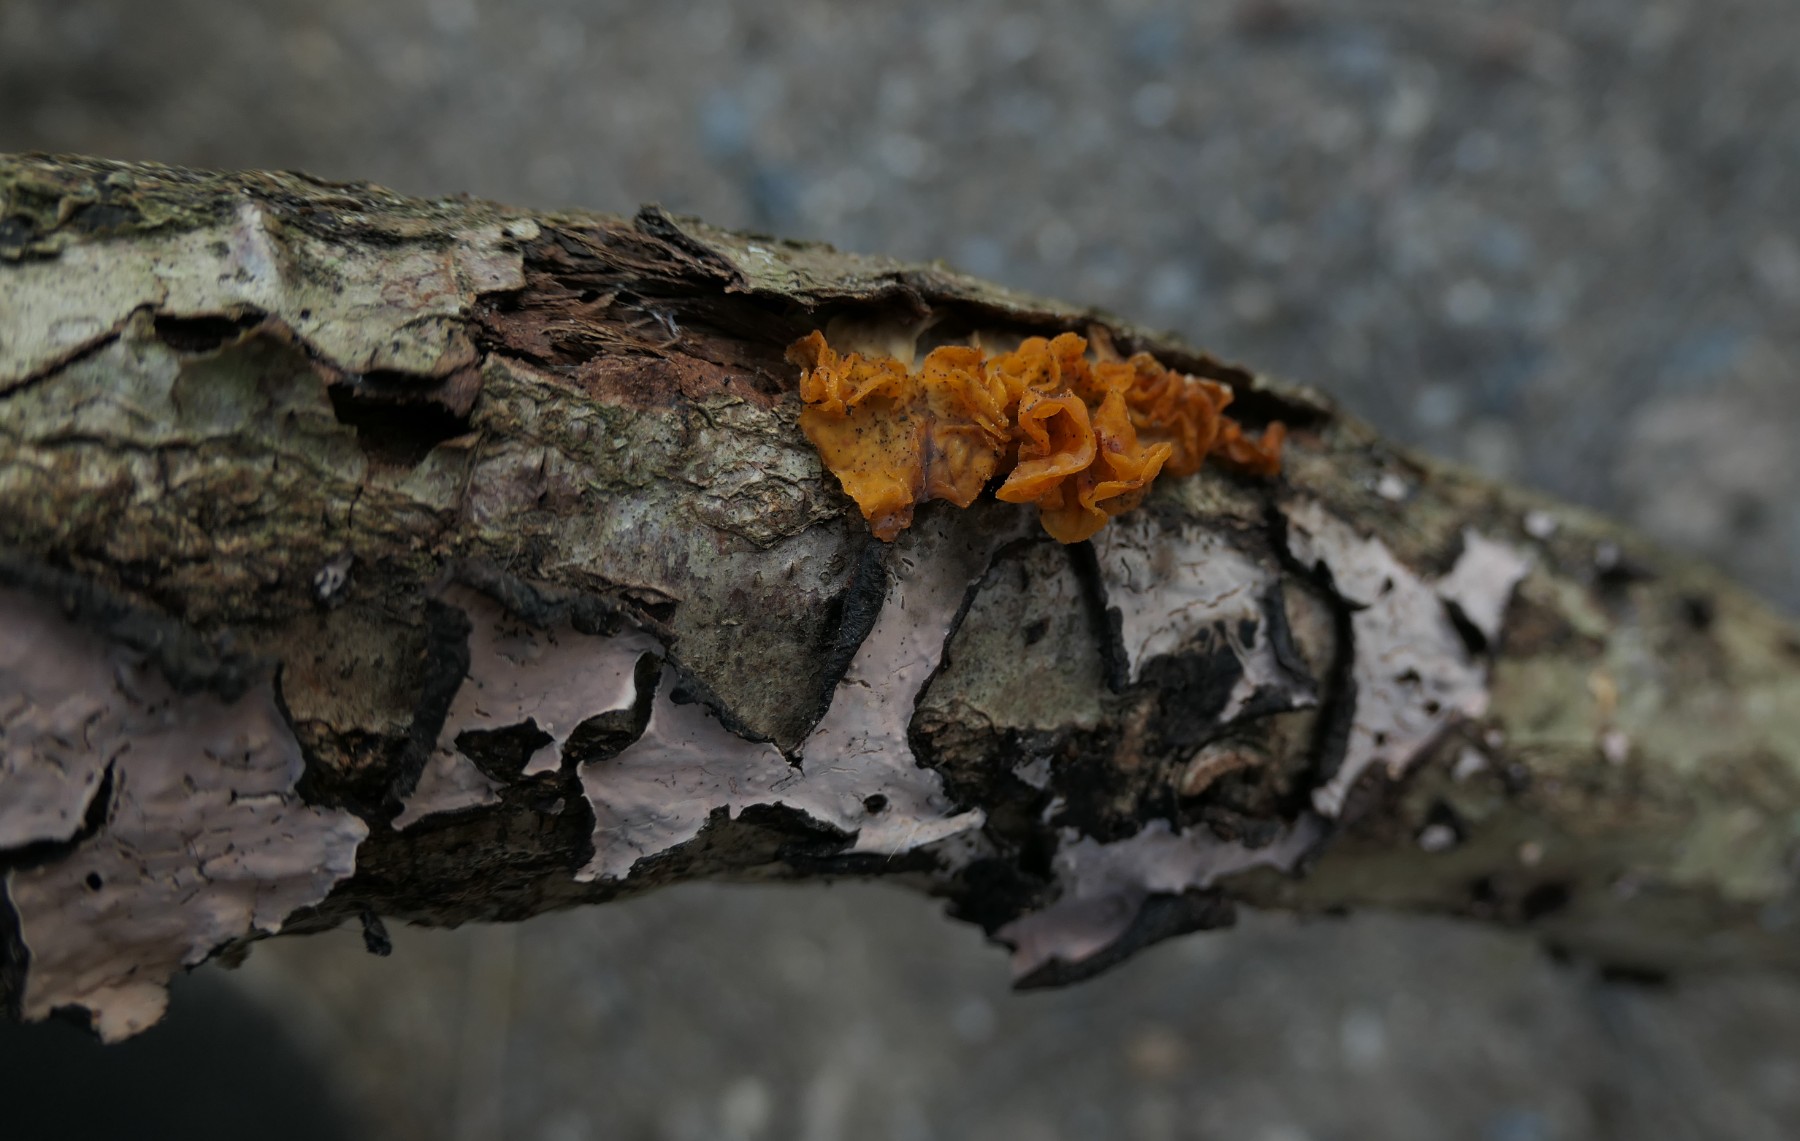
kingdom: Fungi
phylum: Basidiomycota
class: Tremellomycetes
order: Tremellales
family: Tremellaceae
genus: Tremella
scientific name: Tremella mesenterica
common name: gul bævresvamp
